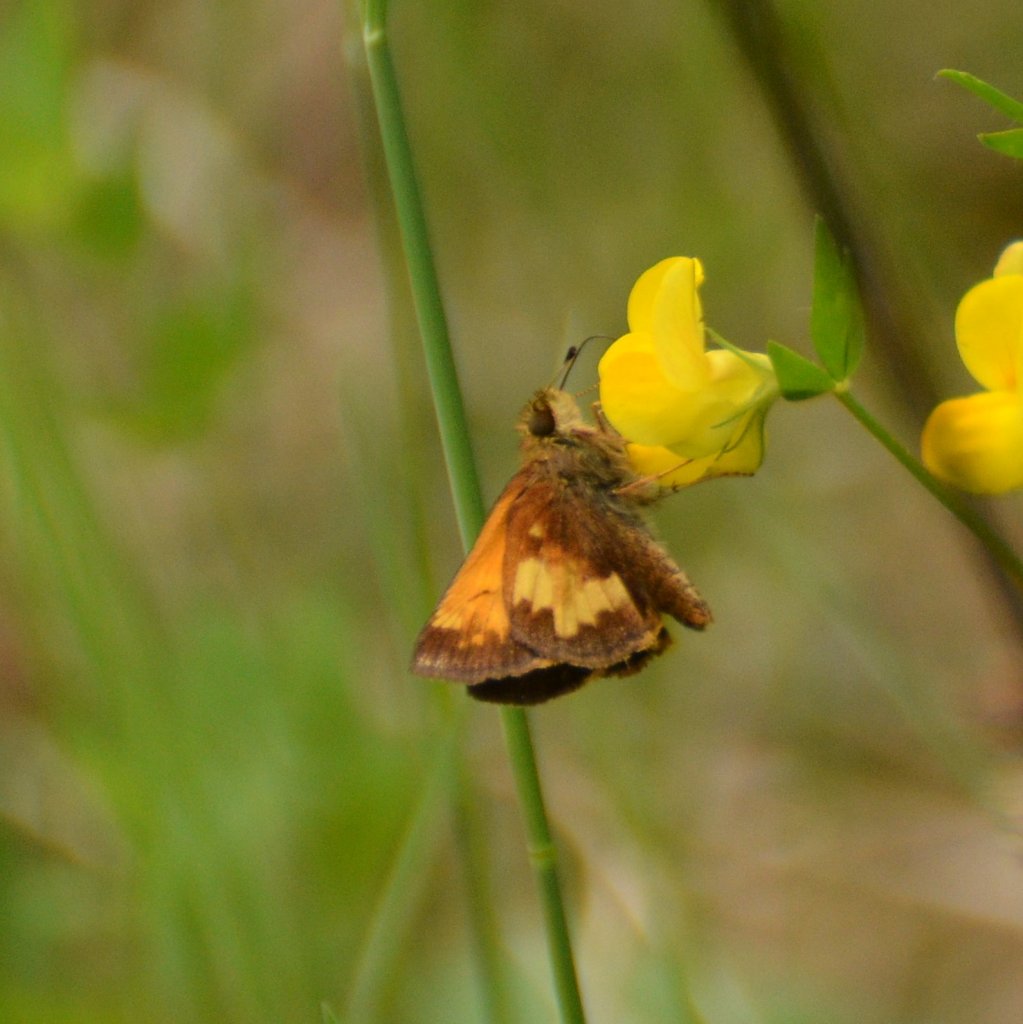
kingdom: Animalia
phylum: Arthropoda
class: Insecta
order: Lepidoptera
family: Hesperiidae
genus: Lon
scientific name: Lon hobomok
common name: Hobomok Skipper
